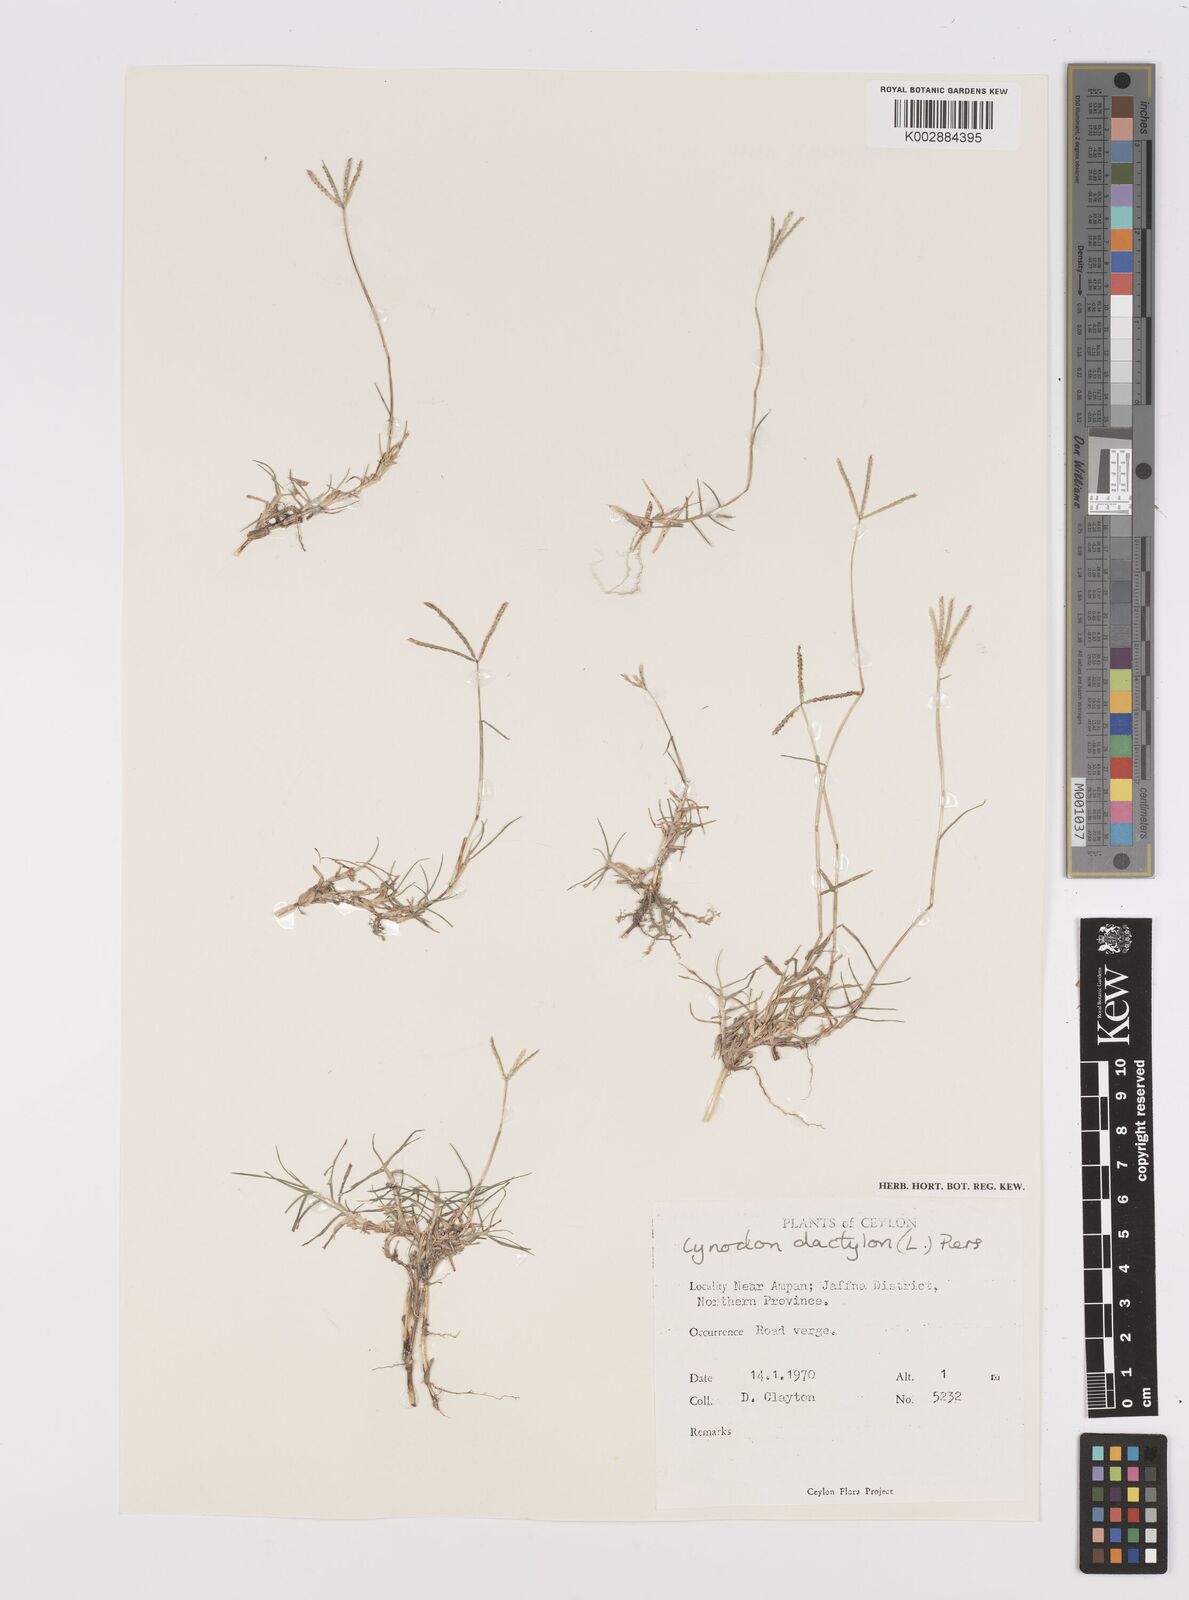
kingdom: Plantae
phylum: Tracheophyta
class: Liliopsida
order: Poales
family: Poaceae
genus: Cynodon
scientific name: Cynodon dactylon
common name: Bermuda grass
